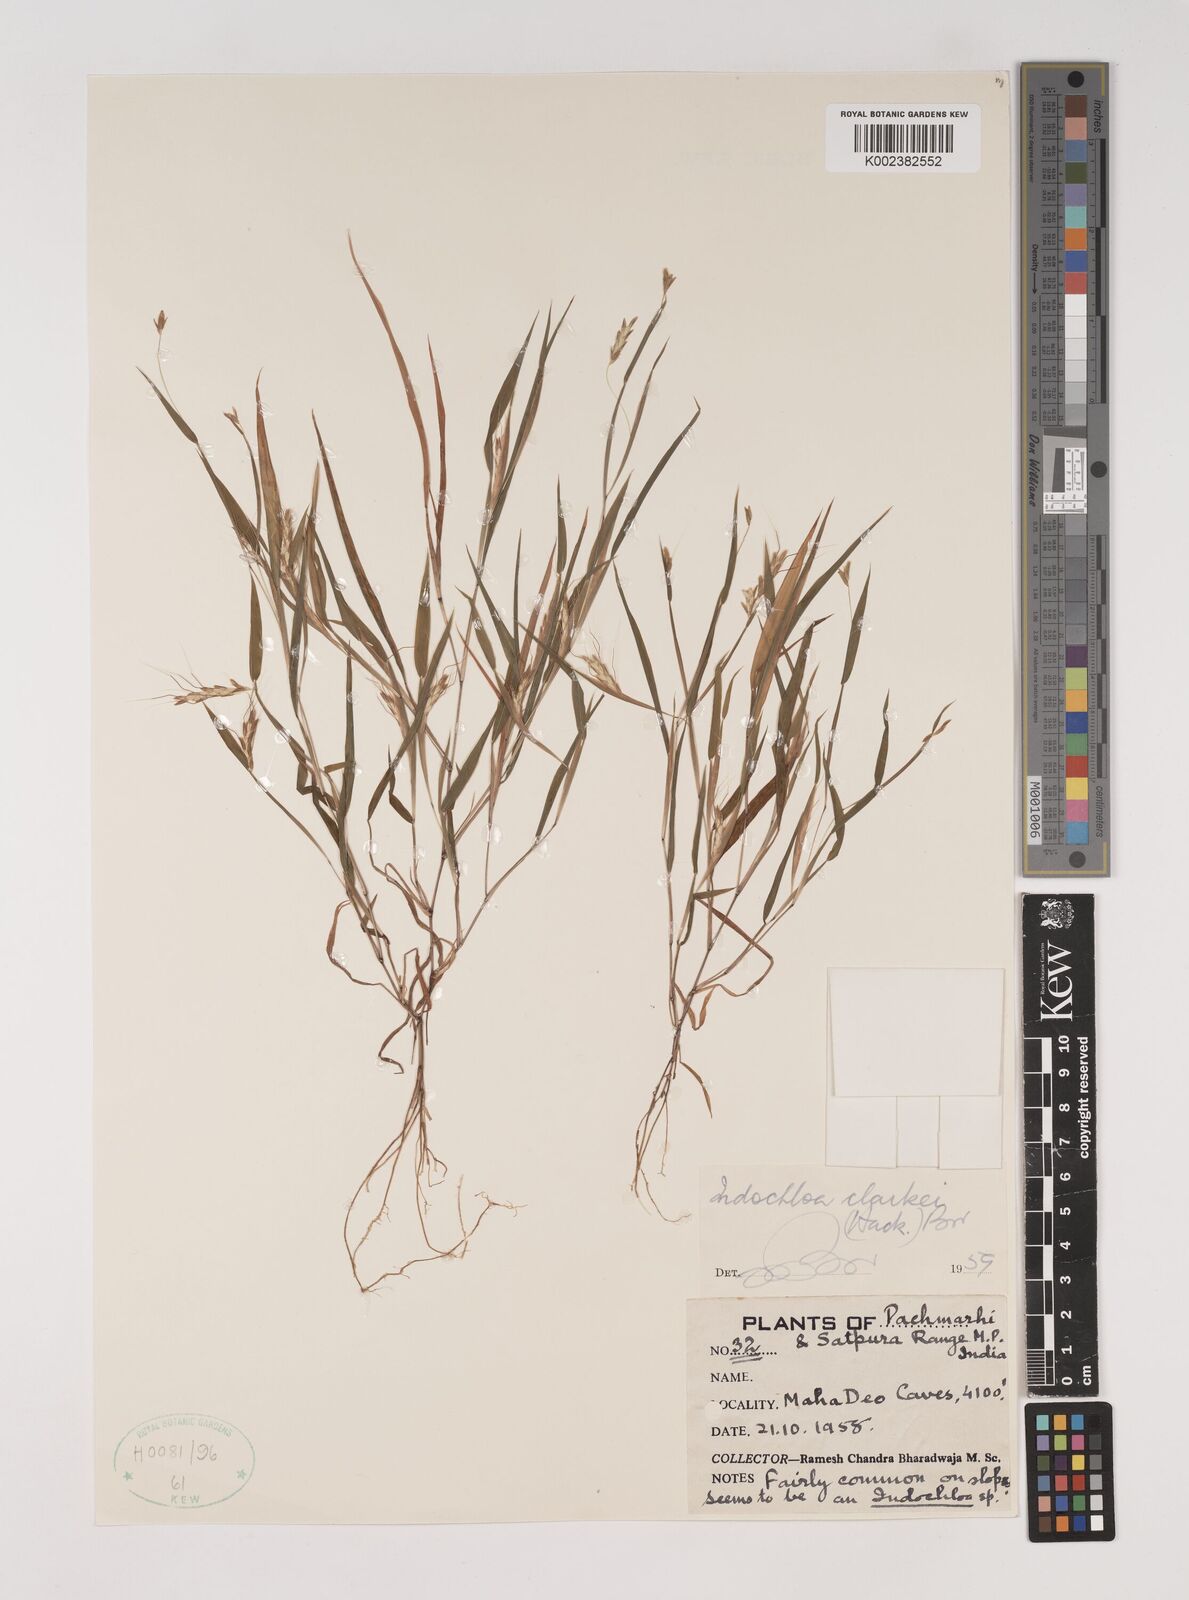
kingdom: Plantae
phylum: Tracheophyta
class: Liliopsida
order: Poales
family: Poaceae
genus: Euclasta
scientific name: Euclasta clarkei
